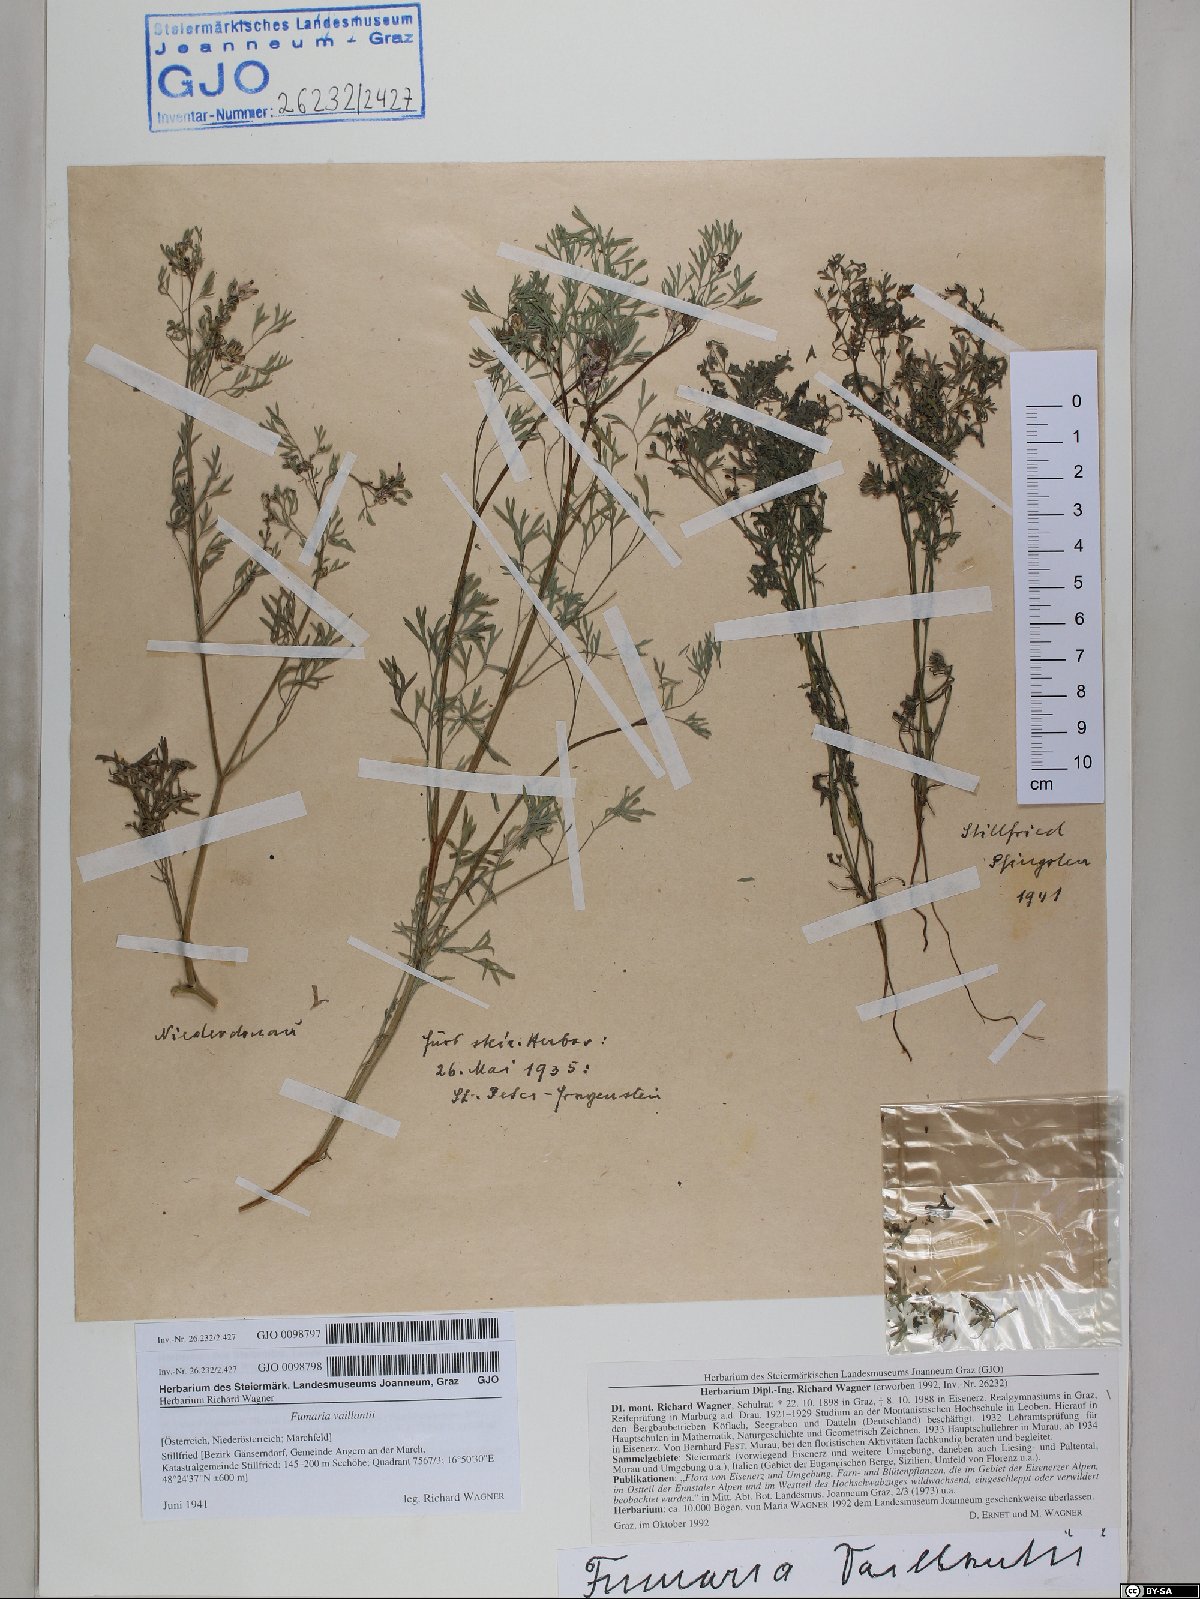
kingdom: Plantae
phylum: Tracheophyta
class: Magnoliopsida
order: Ranunculales
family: Papaveraceae
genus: Fumaria
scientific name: Fumaria vaillantii
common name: Few-flowered fumitory
